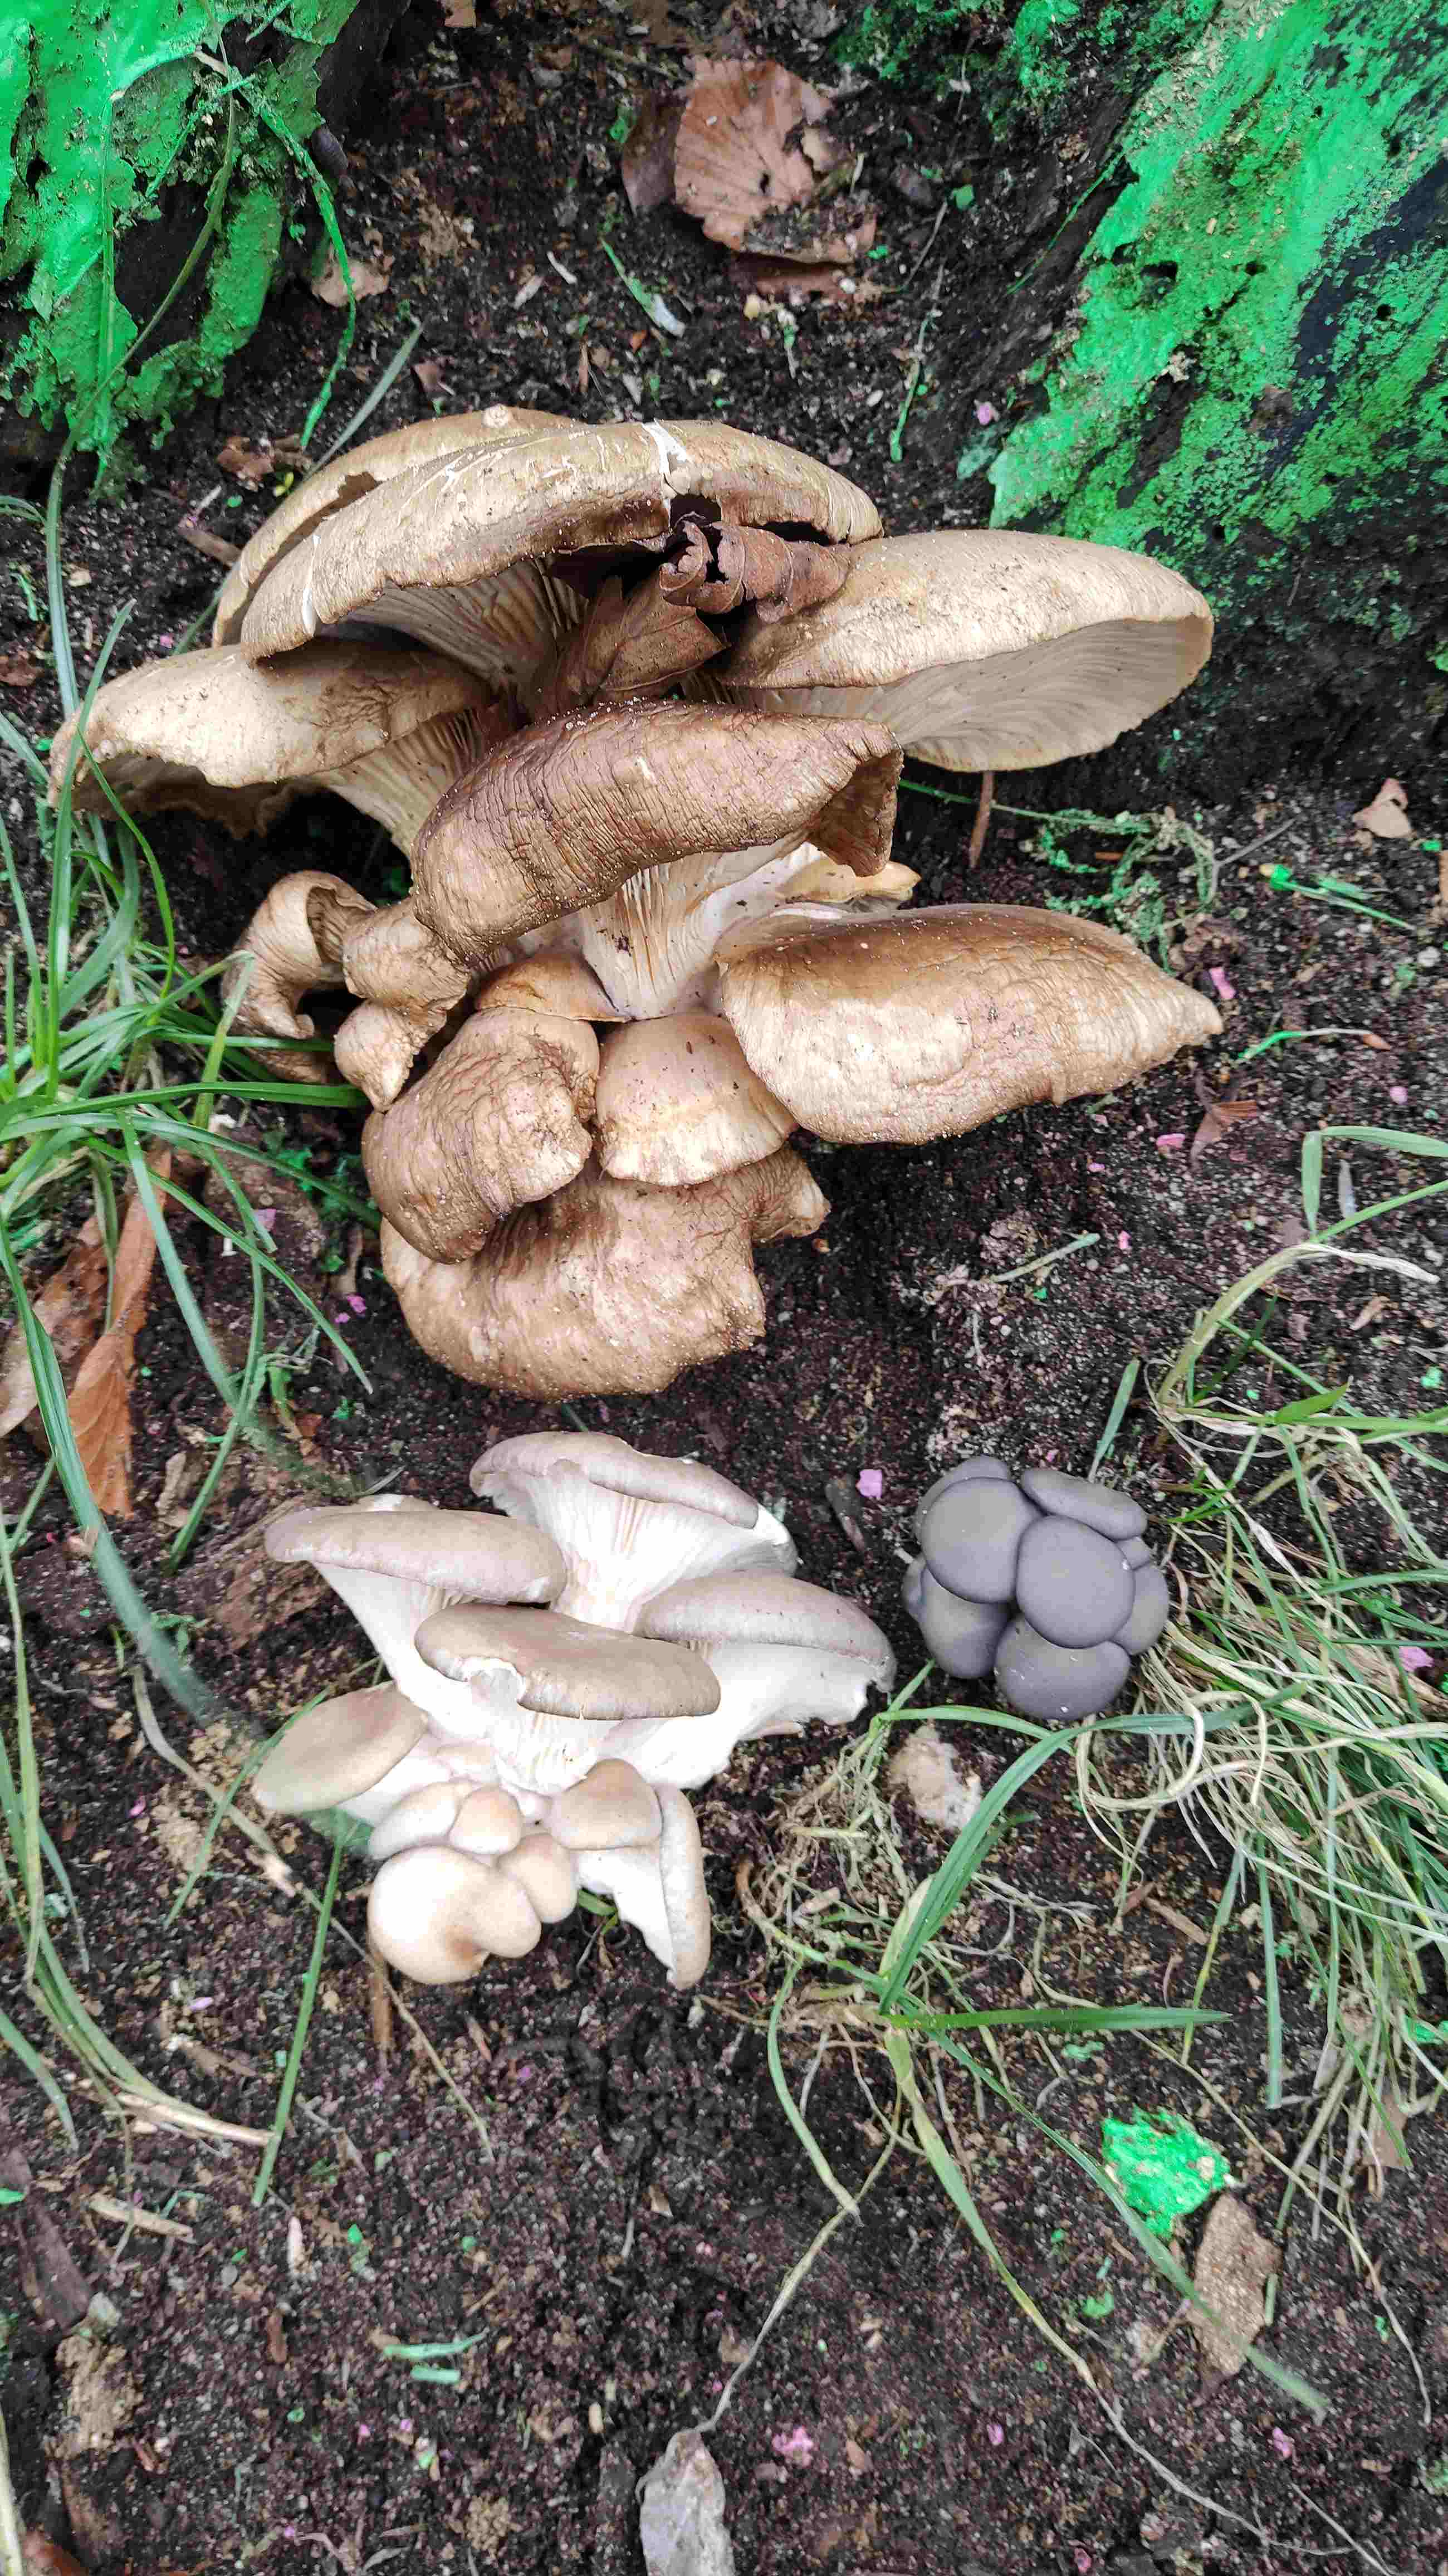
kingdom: Fungi
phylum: Basidiomycota
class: Agaricomycetes
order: Agaricales
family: Pleurotaceae
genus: Pleurotus
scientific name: Pleurotus ostreatus
